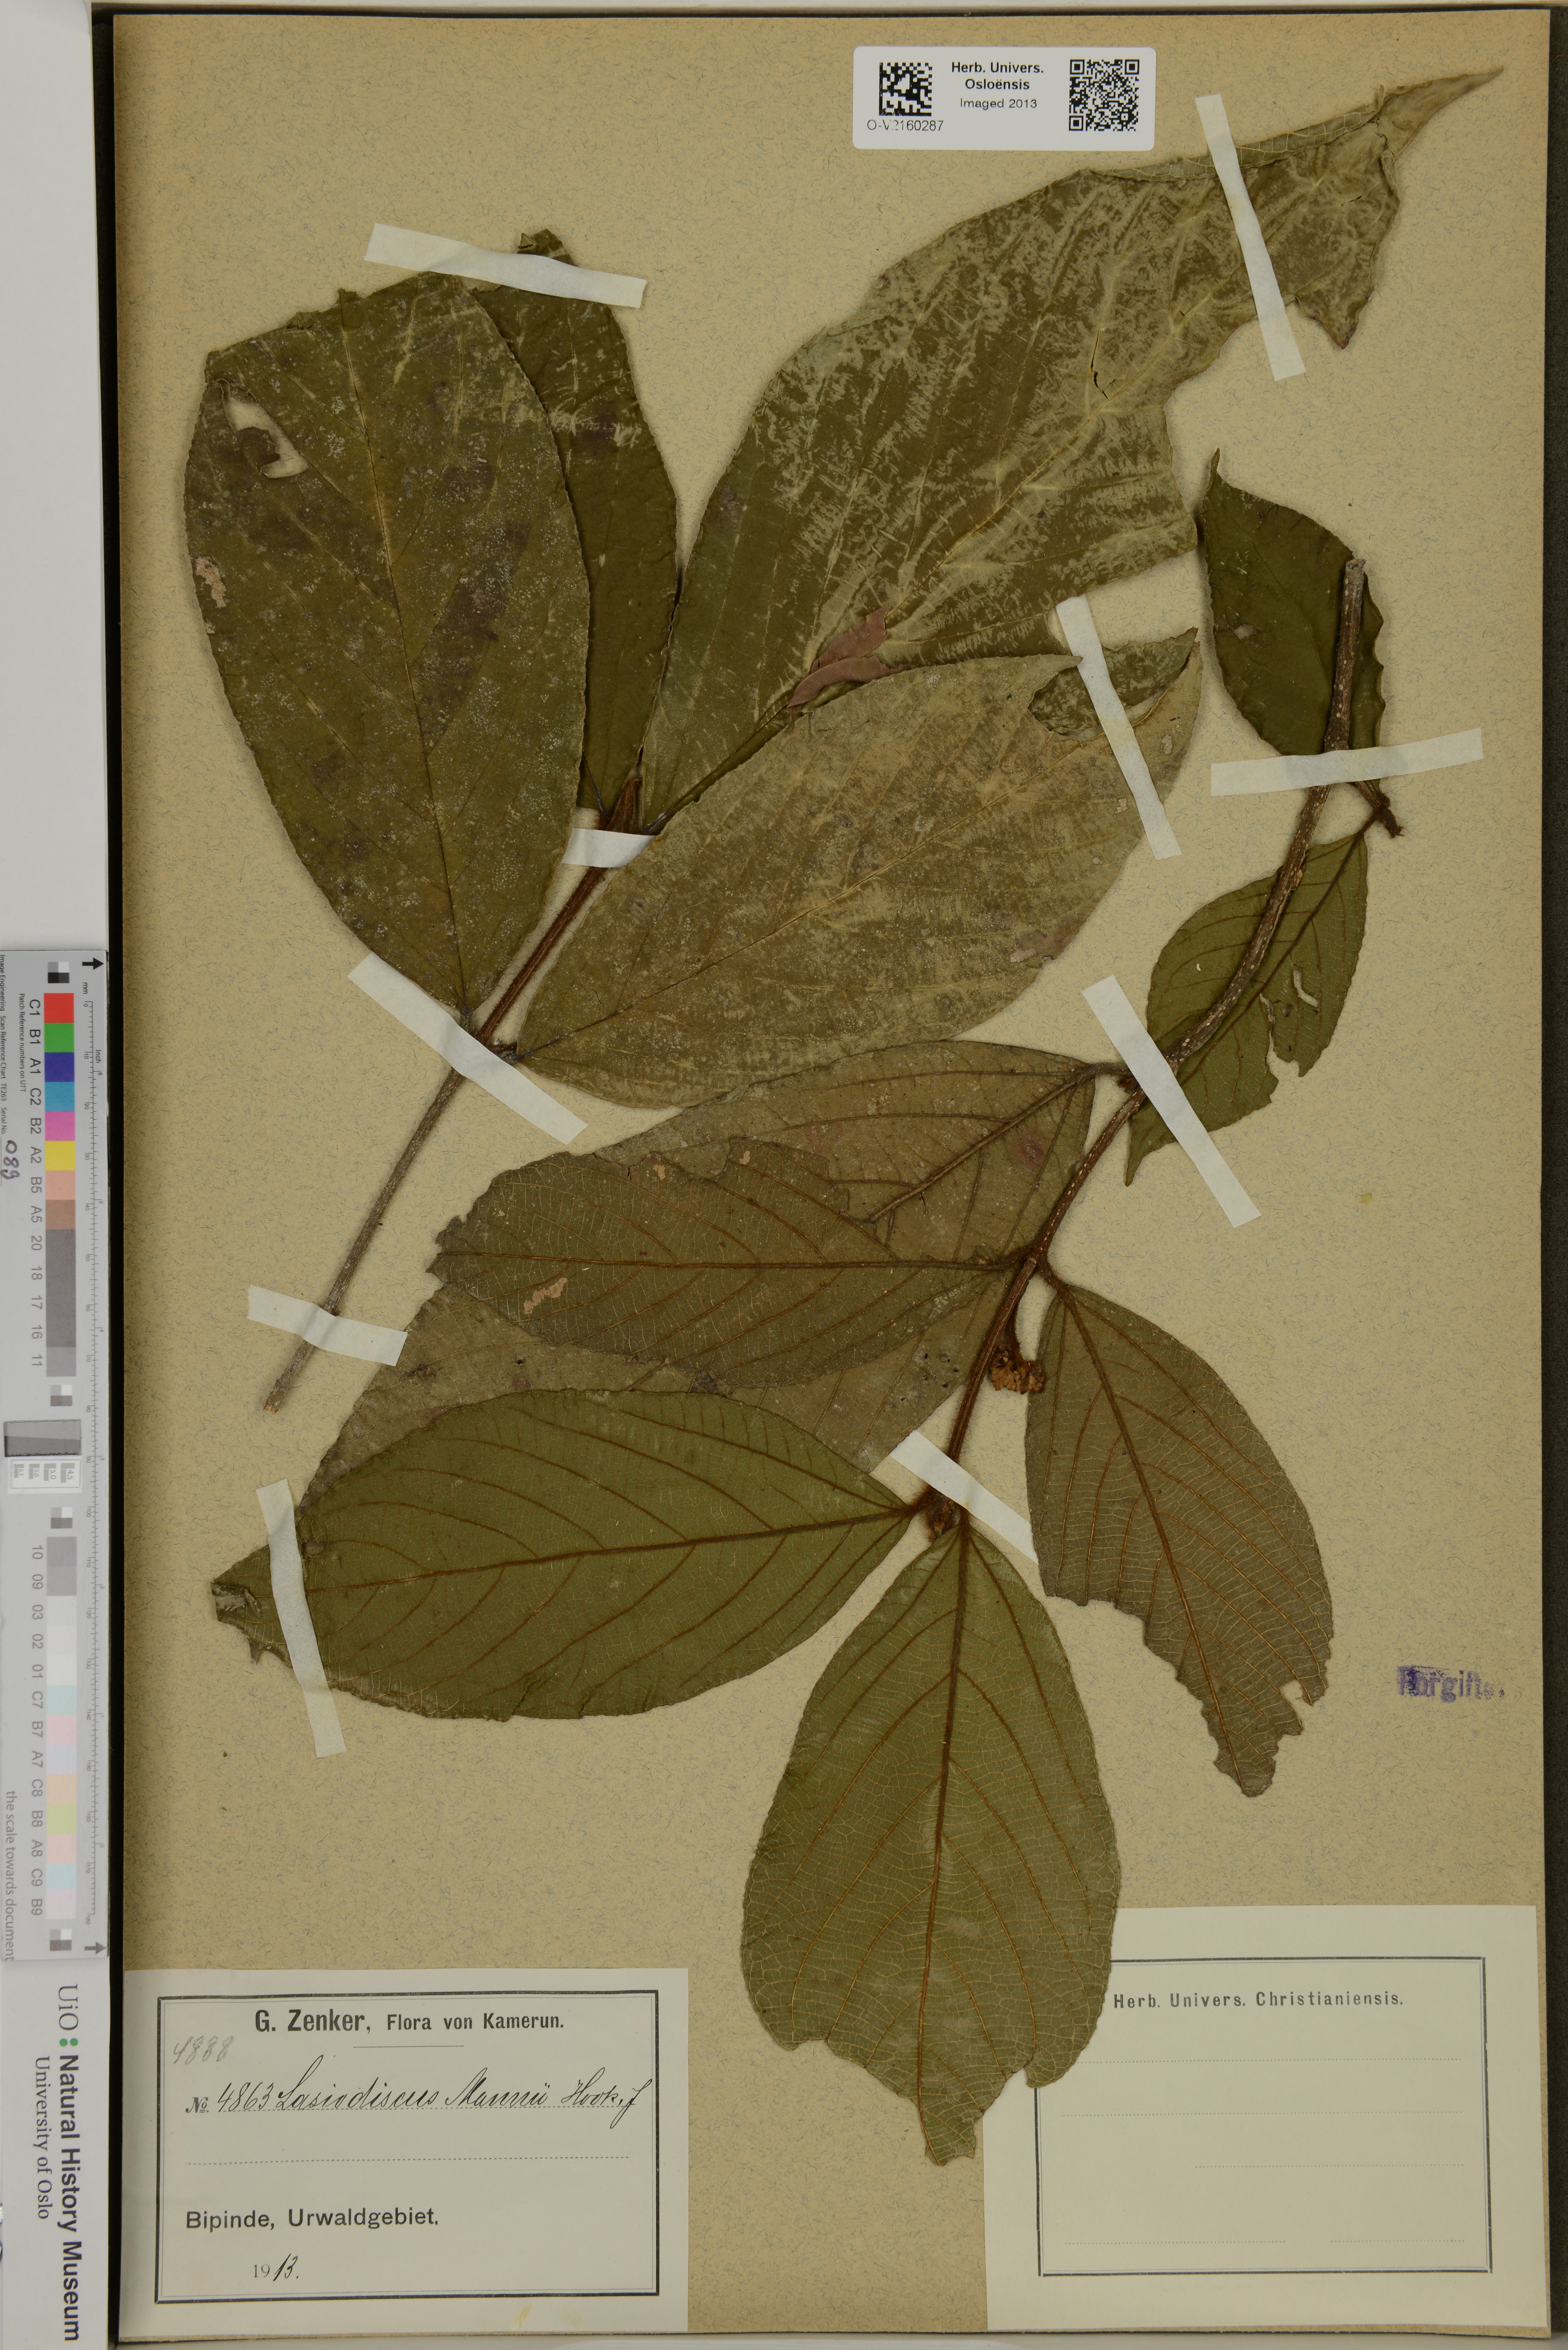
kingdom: Plantae
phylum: Tracheophyta
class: Magnoliopsida
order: Rosales
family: Rhamnaceae
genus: Lasiodiscus
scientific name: Lasiodiscus mannii
